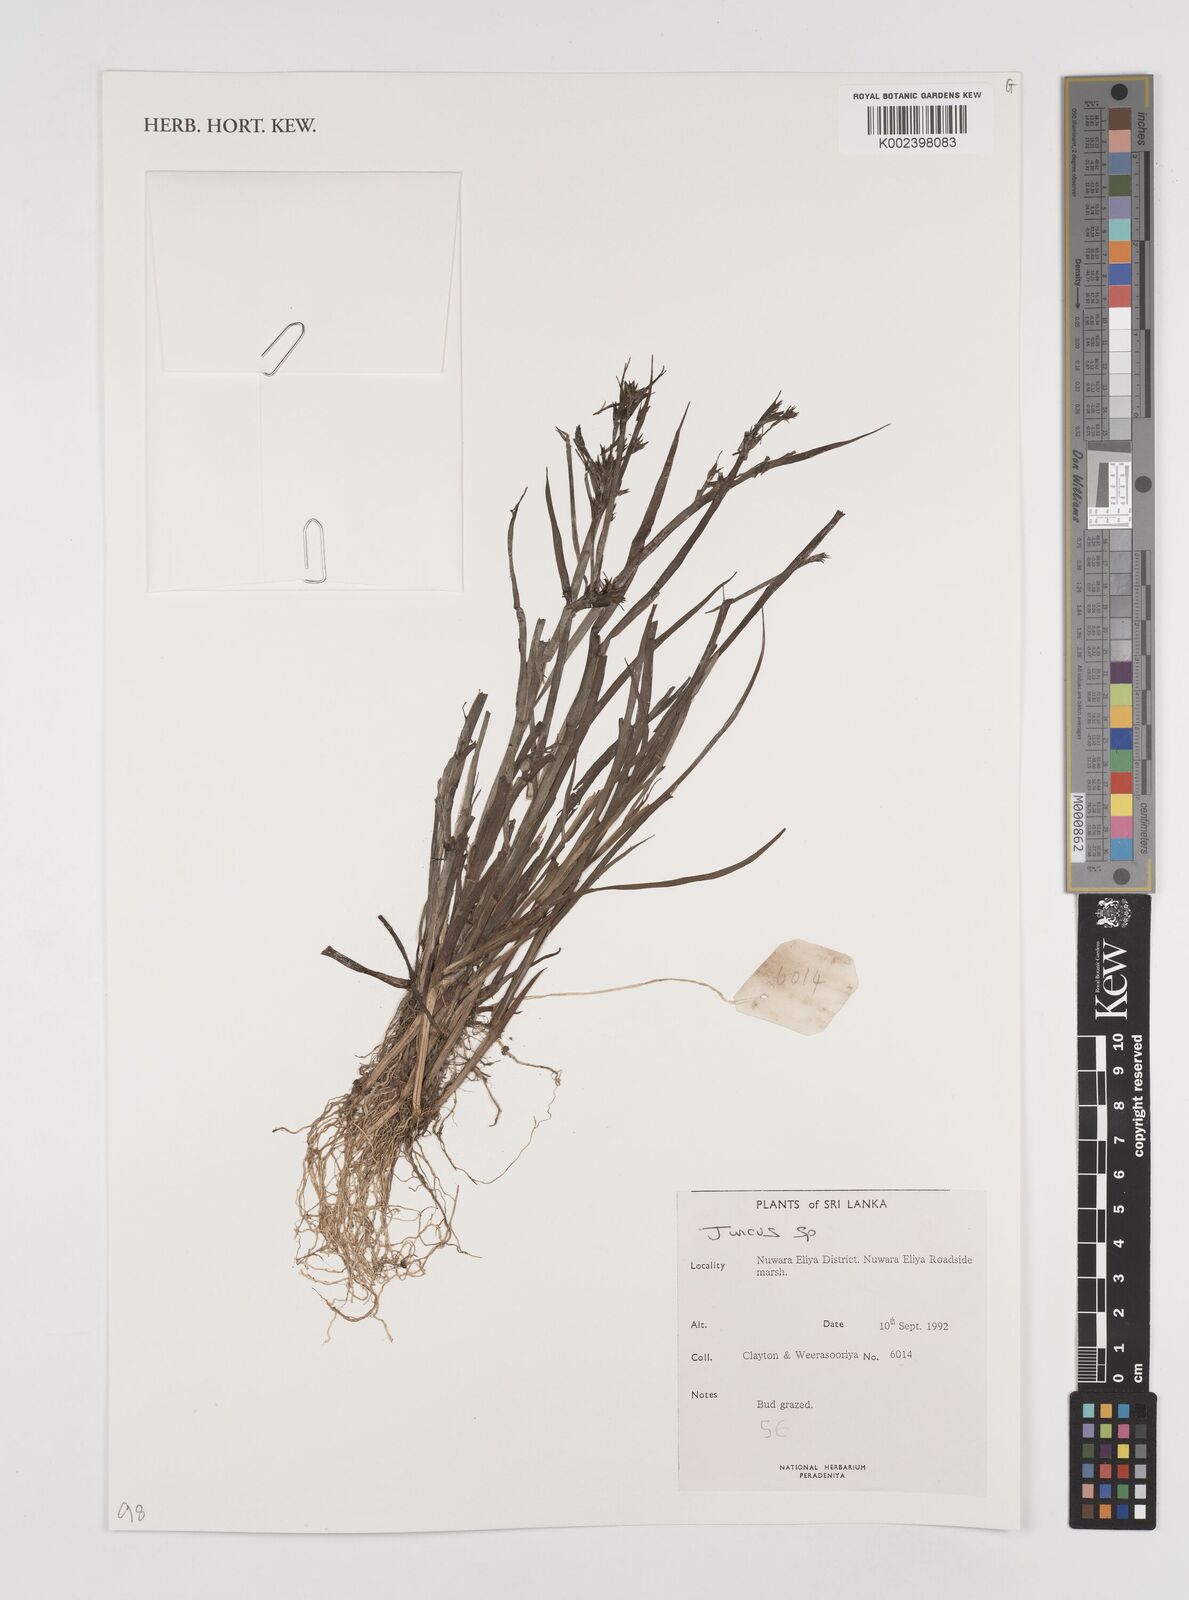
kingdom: Plantae
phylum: Tracheophyta
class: Liliopsida
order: Poales
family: Juncaceae
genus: Juncus
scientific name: Juncus
